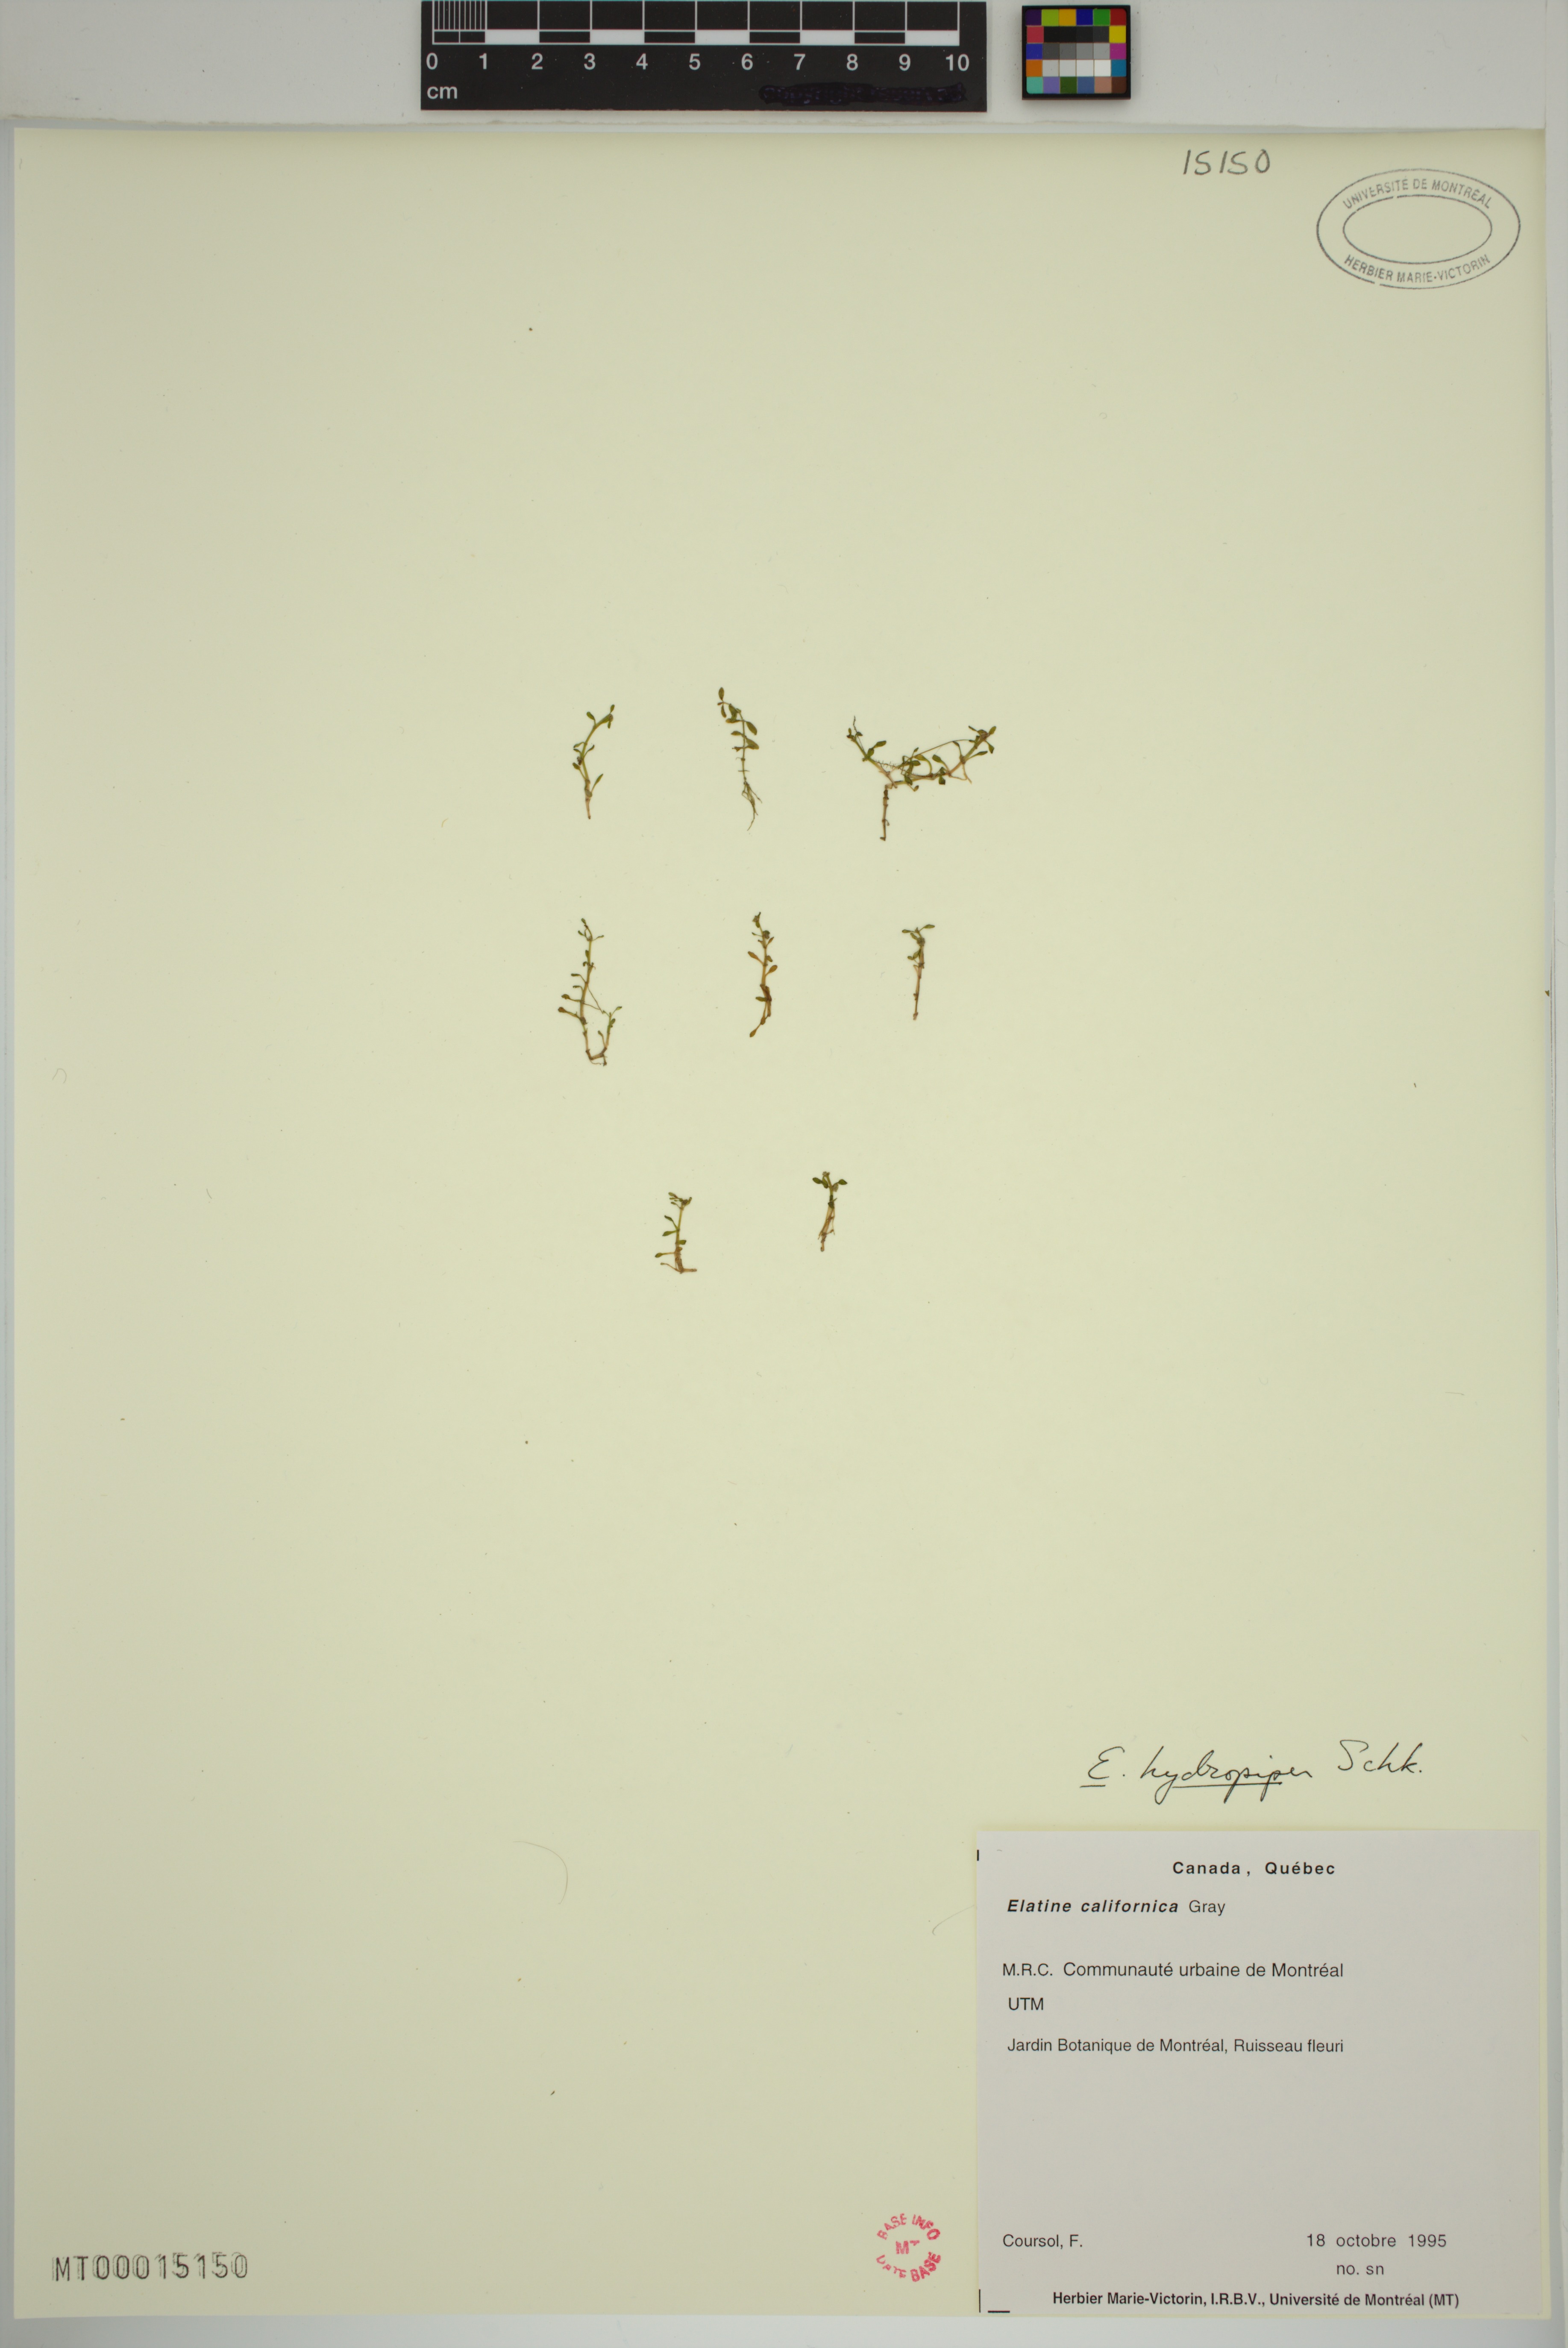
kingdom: Plantae
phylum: Tracheophyta
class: Magnoliopsida
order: Malpighiales
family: Elatinaceae
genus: Elatine
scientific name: Elatine hydropiper
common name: Eight-stamened waterwort
